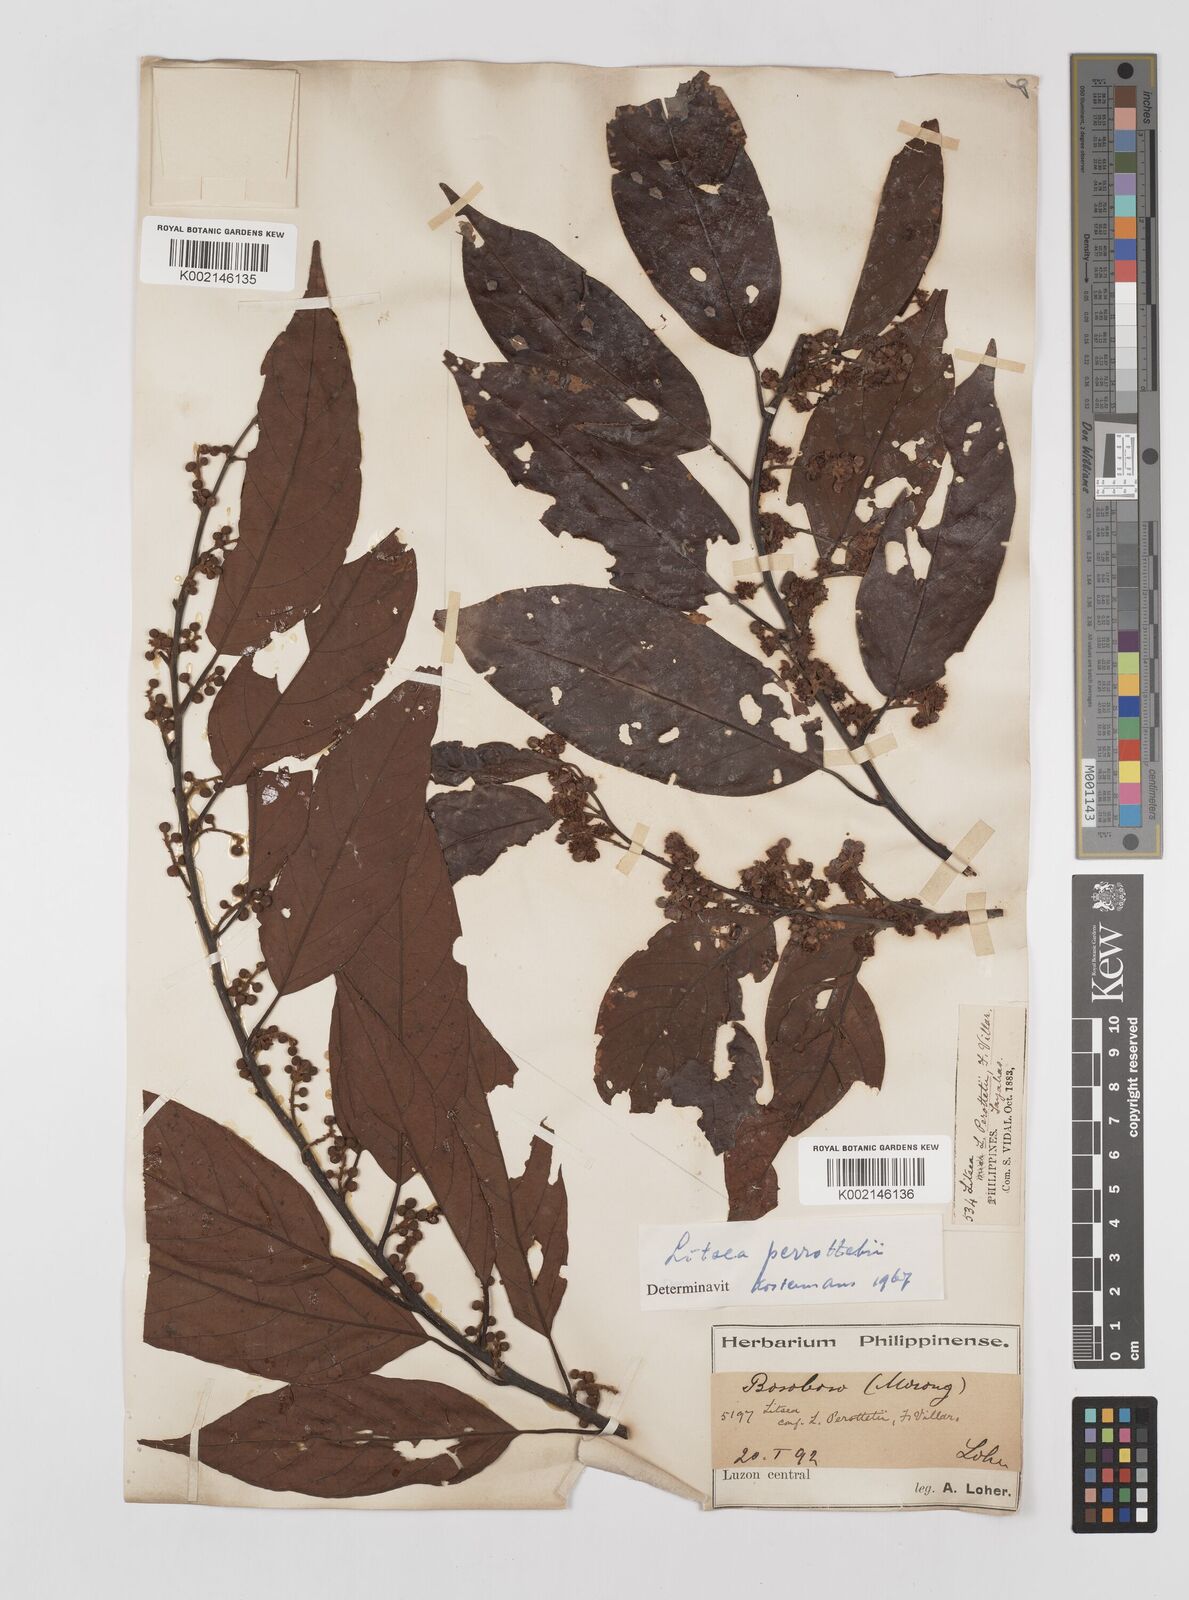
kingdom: Plantae
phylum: Tracheophyta
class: Magnoliopsida
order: Laurales
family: Lauraceae
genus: Litsea
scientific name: Litsea cordata
